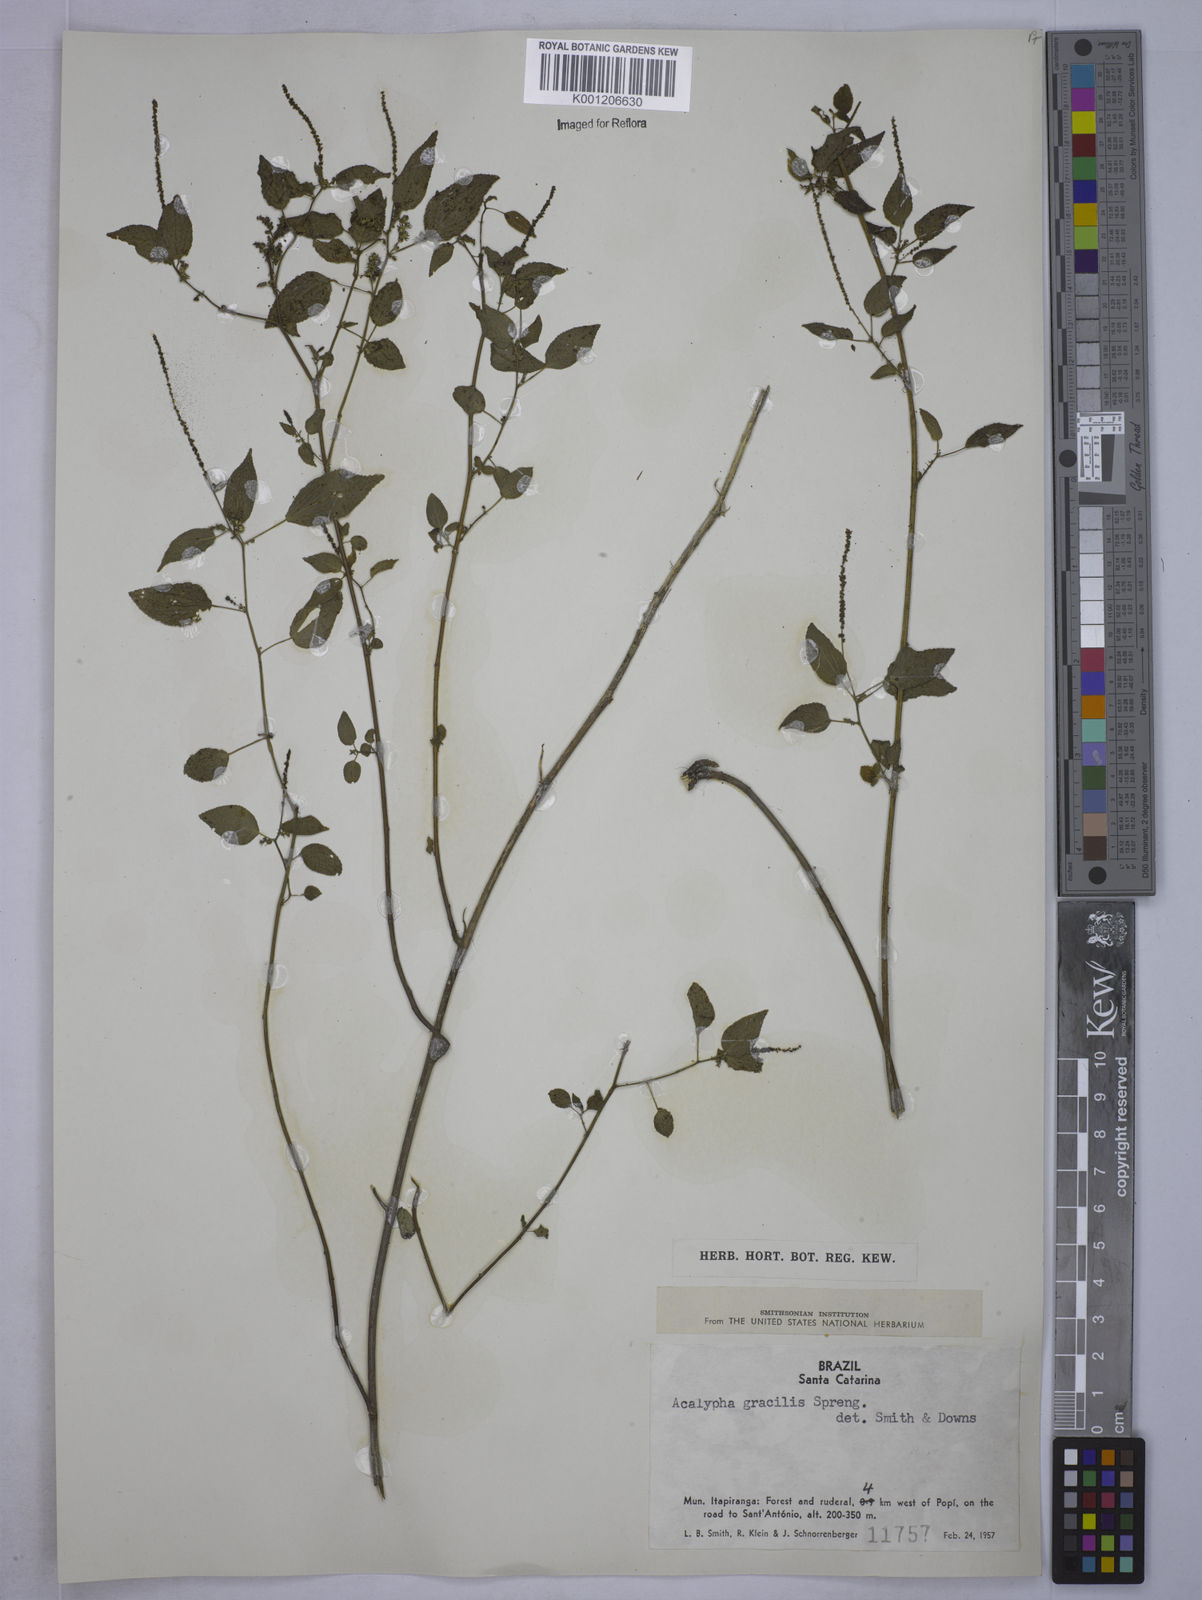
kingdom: Plantae
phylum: Tracheophyta
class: Magnoliopsida
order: Malpighiales
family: Euphorbiaceae
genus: Acalypha
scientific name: Acalypha gracilis
